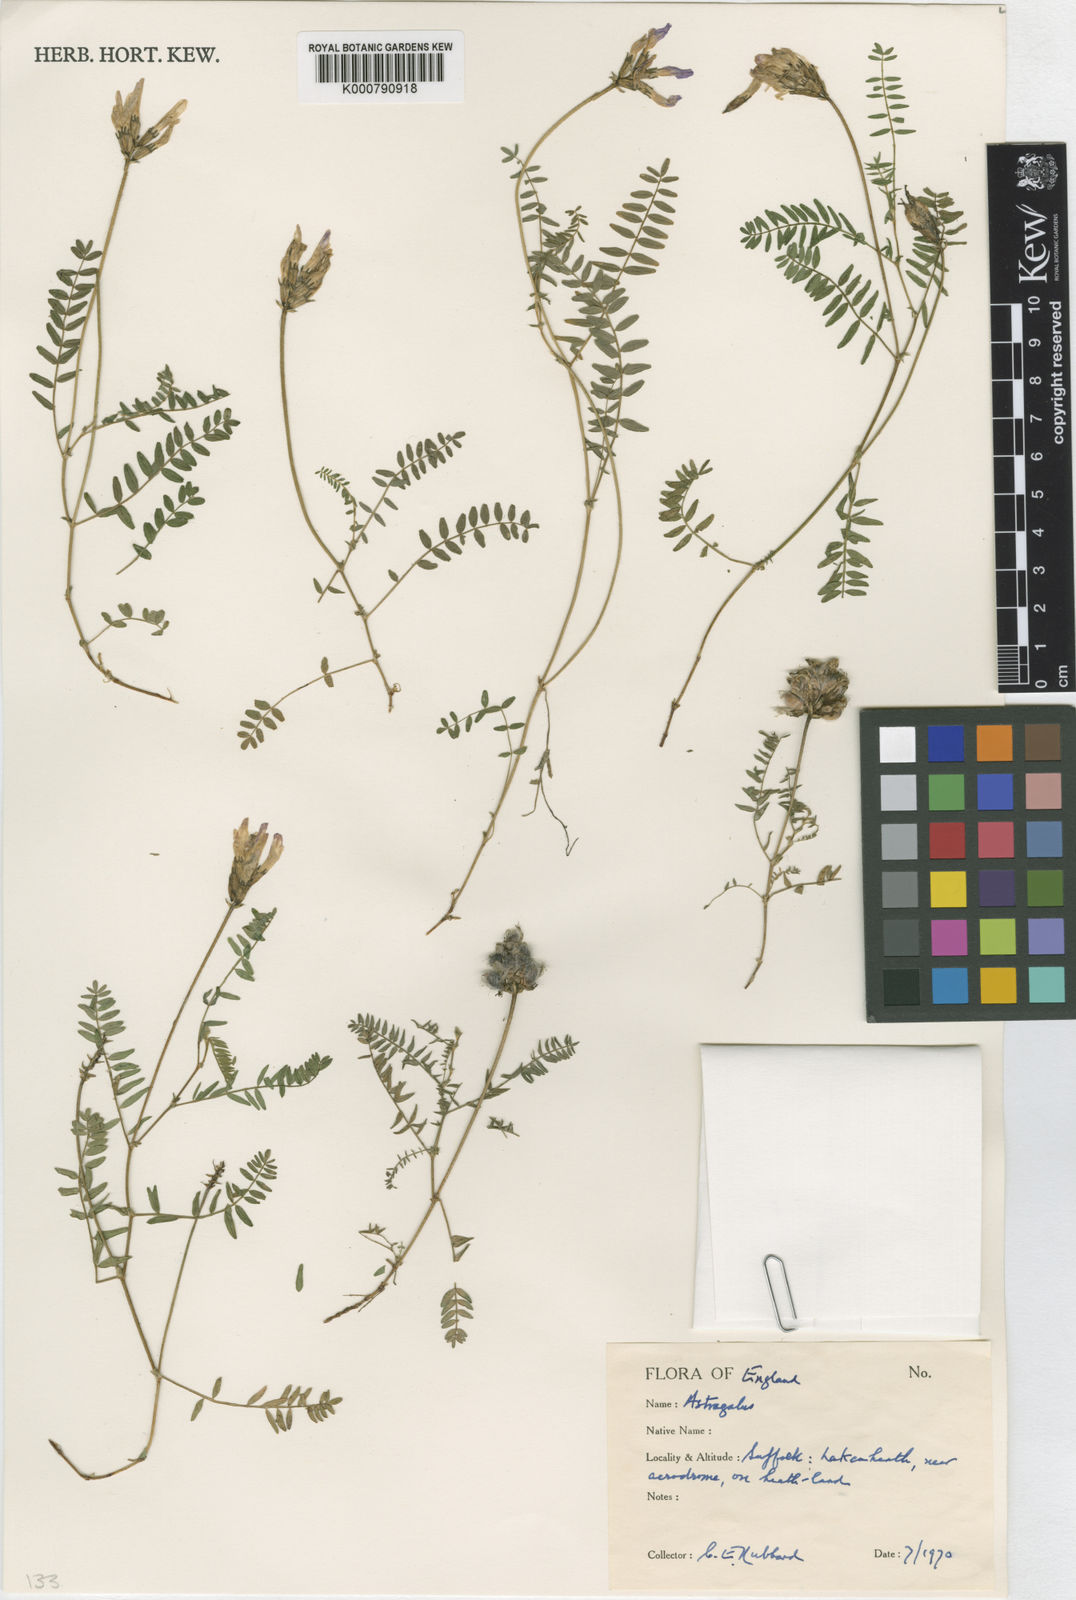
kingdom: Plantae
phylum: Tracheophyta
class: Magnoliopsida
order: Fabales
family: Fabaceae
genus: Astragalus
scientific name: Astragalus danicus
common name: Purple milk-vetch
